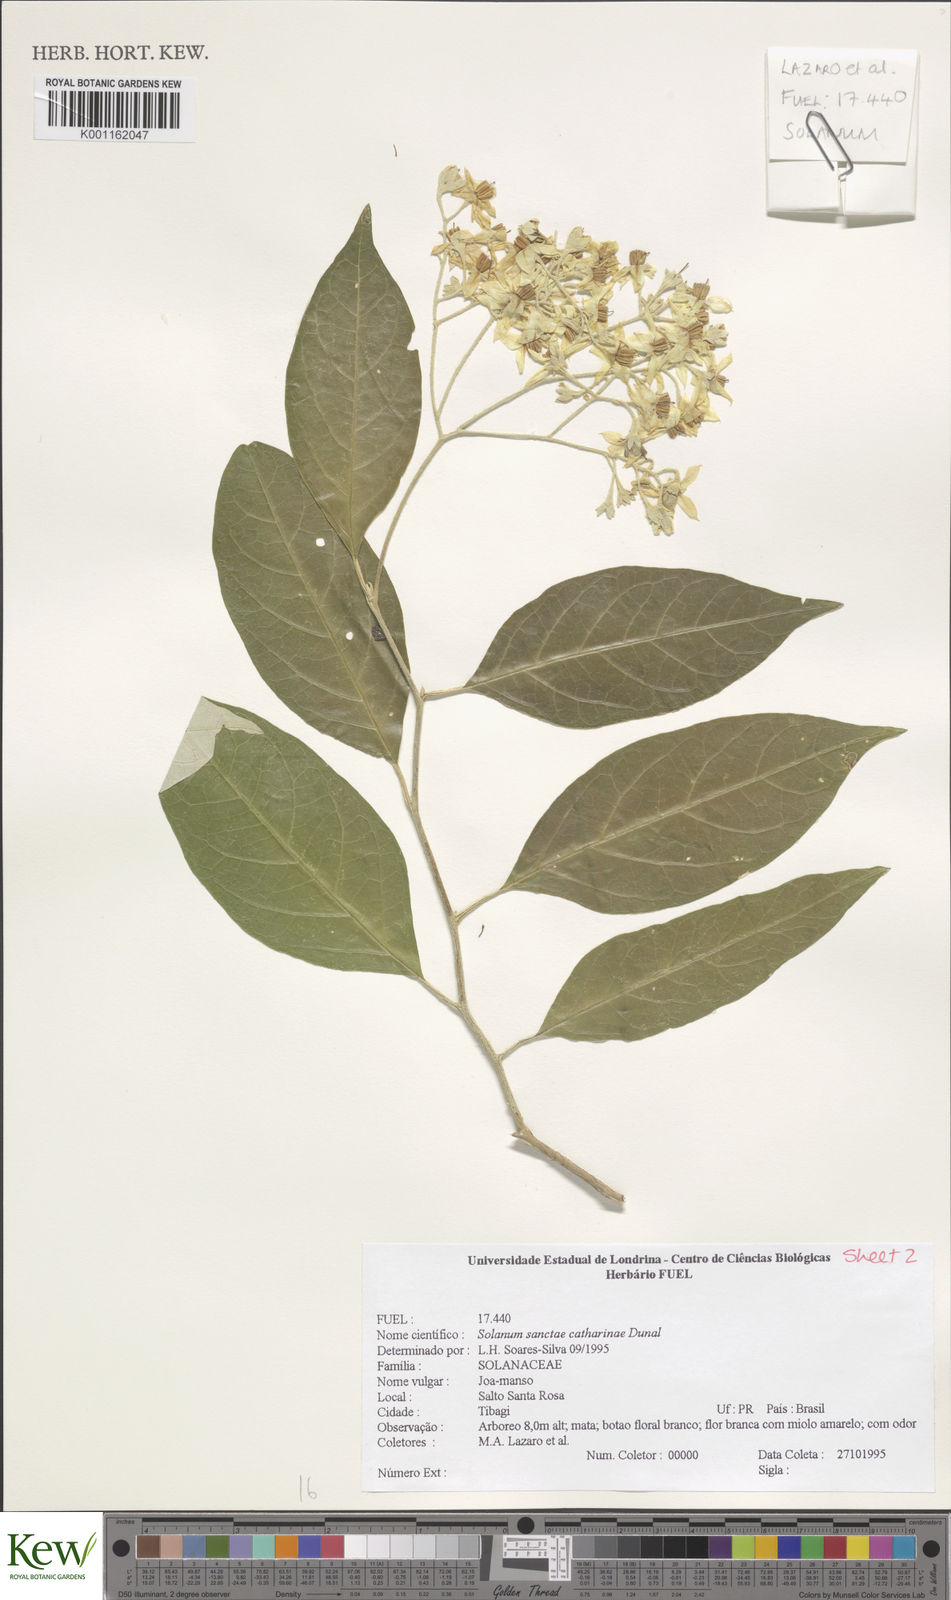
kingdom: Plantae
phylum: Tracheophyta
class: Magnoliopsida
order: Solanales
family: Solanaceae
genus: Solanum
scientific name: Solanum sanctae-catharinae
